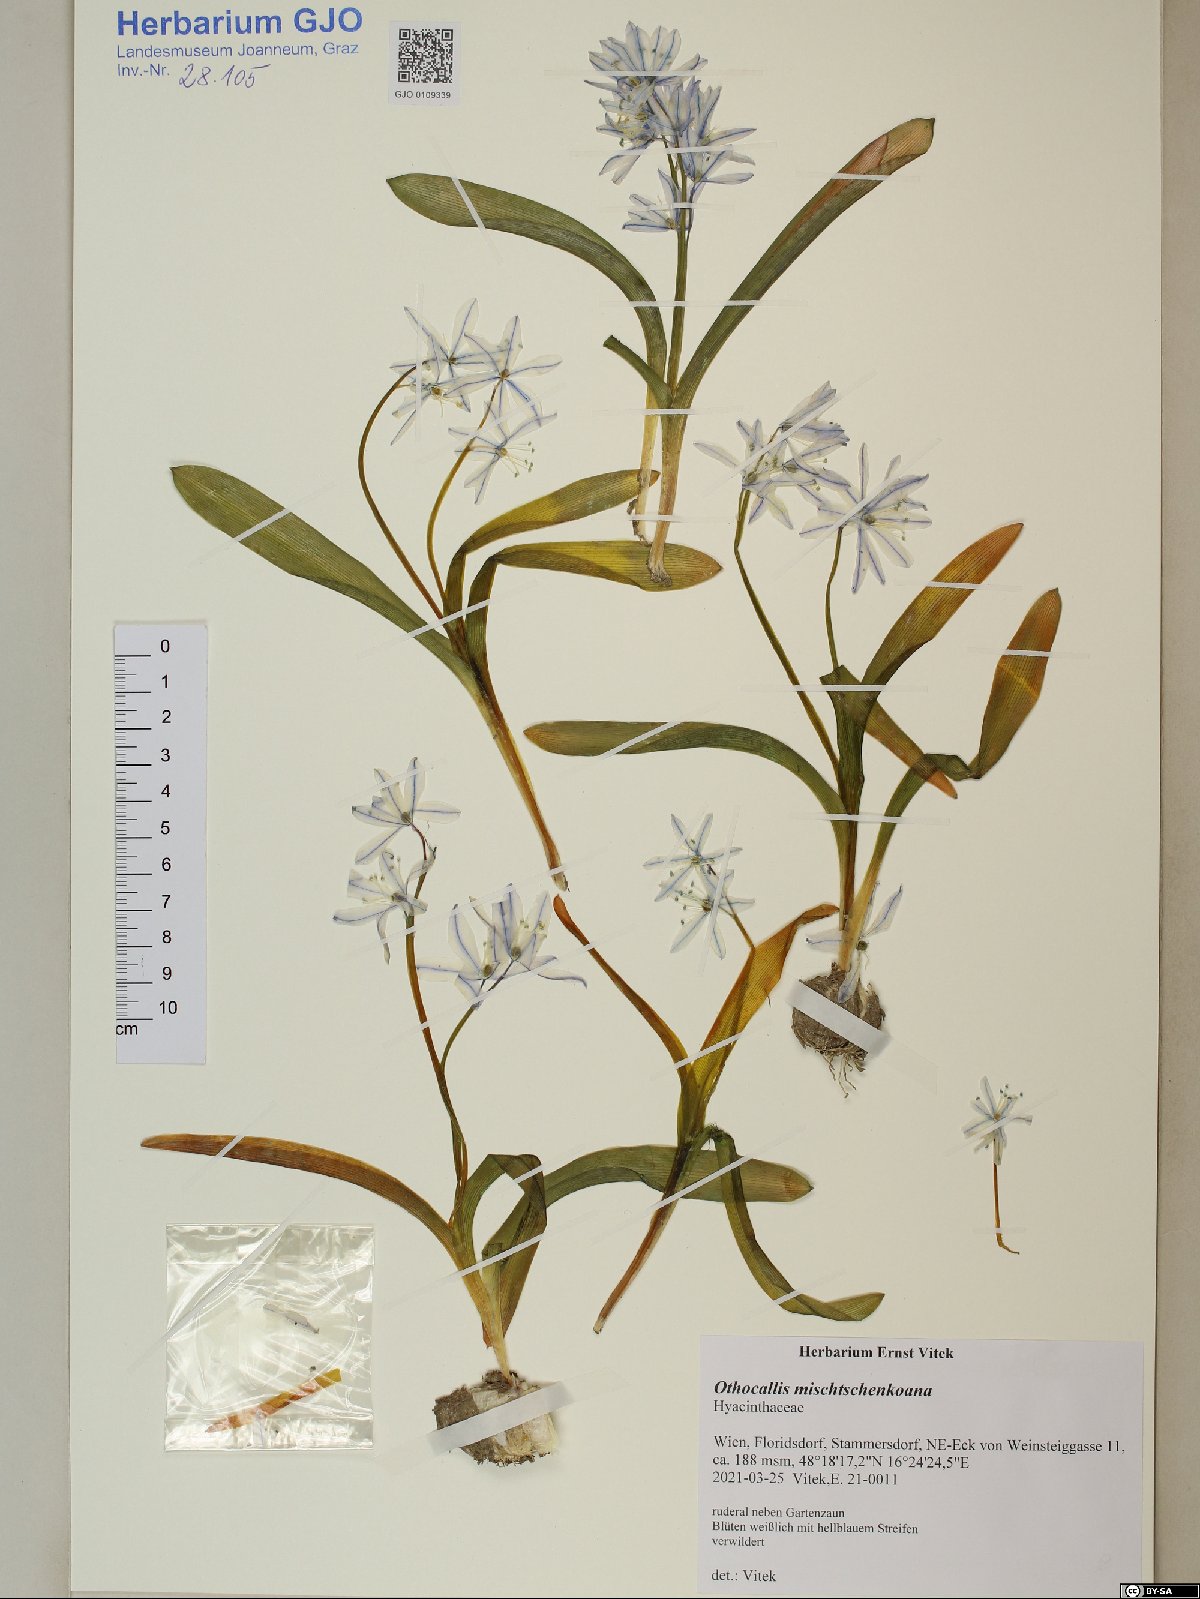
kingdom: Plantae
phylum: Tracheophyta
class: Liliopsida
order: Asparagales
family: Asparagaceae
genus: Scilla
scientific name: Scilla mischtschenkoana
